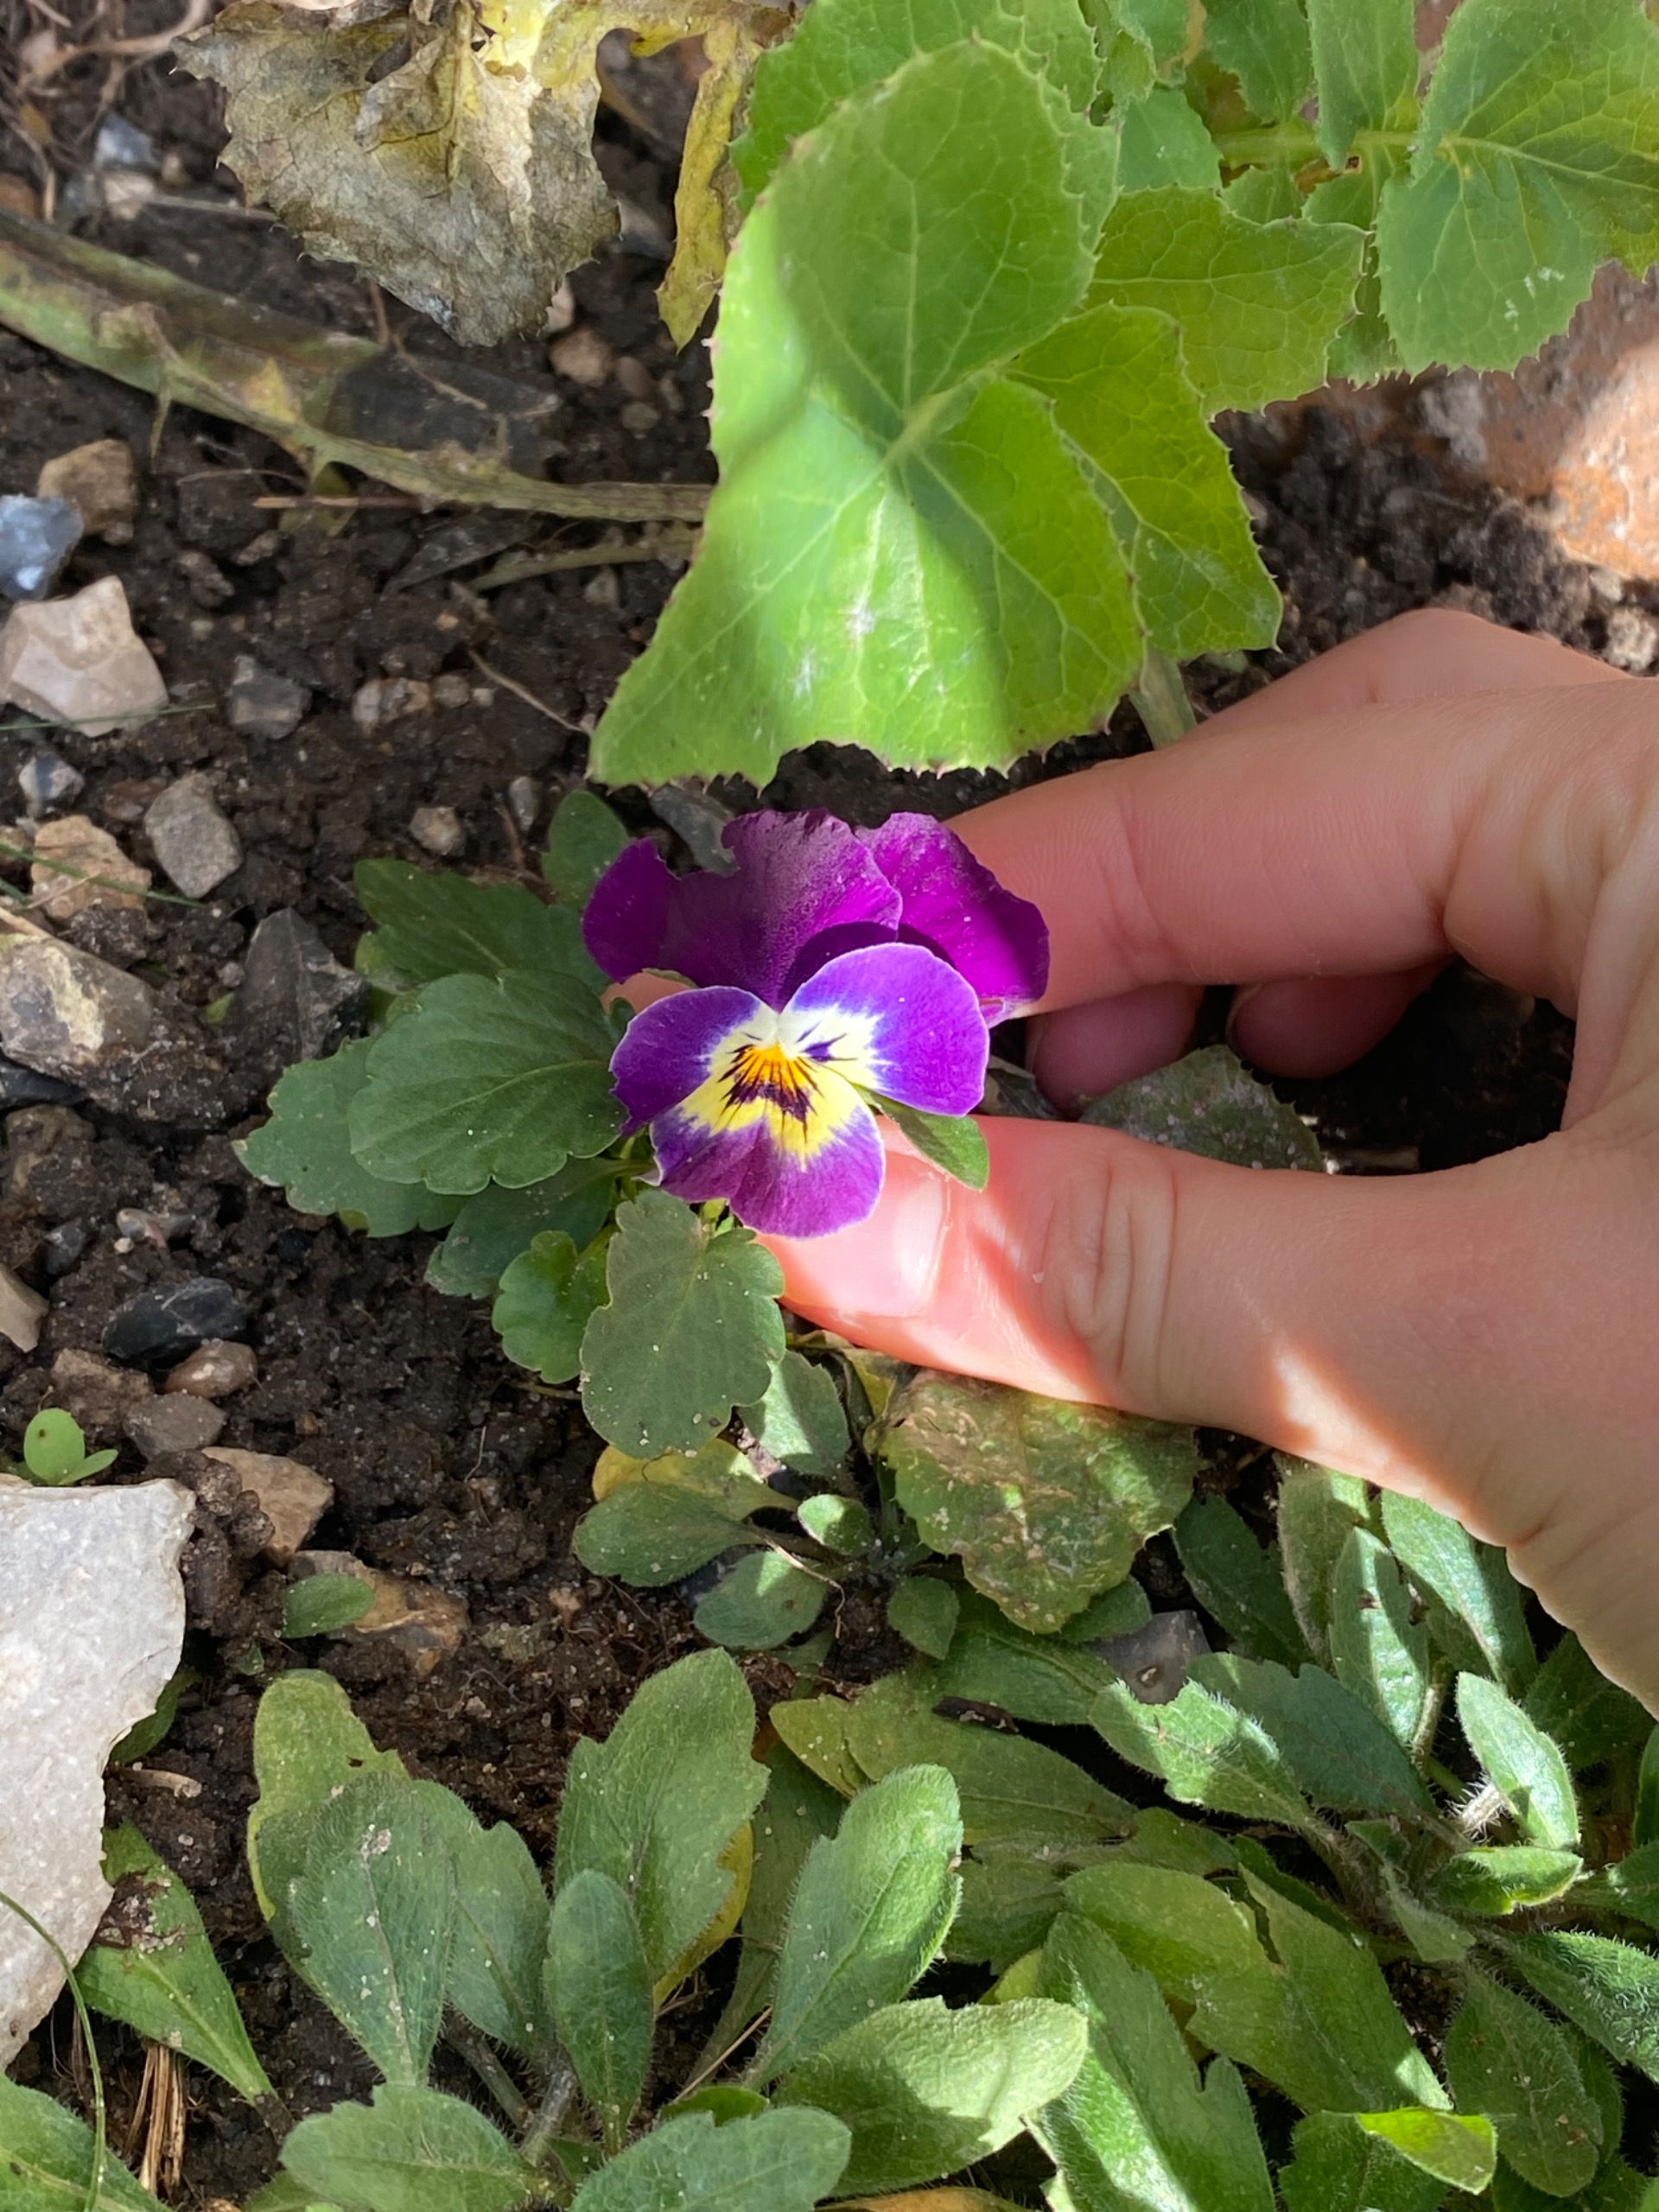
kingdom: Plantae
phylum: Tracheophyta
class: Magnoliopsida
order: Malpighiales
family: Violaceae
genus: Viola
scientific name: Viola wittrockiana
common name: Have-stedmoderblomst
